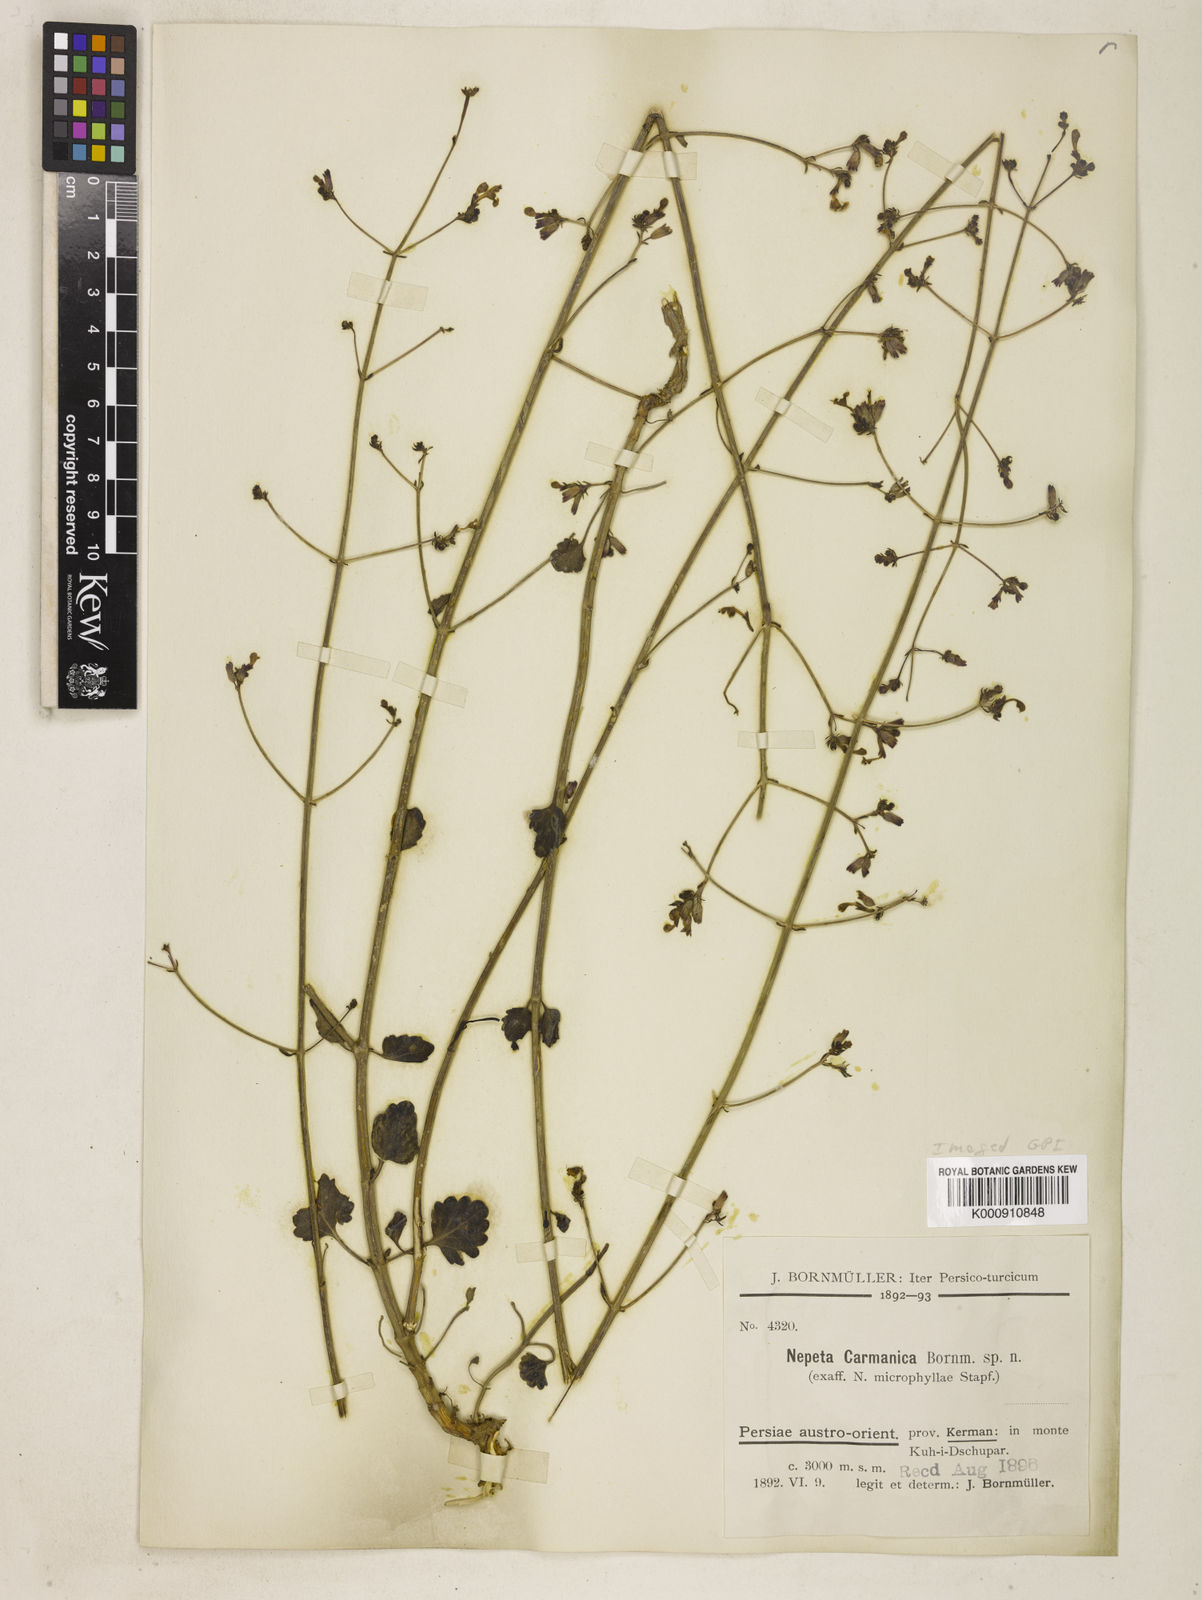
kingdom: Plantae
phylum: Tracheophyta
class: Magnoliopsida
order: Lamiales
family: Lamiaceae
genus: Nepeta
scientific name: Nepeta teucriifolia
